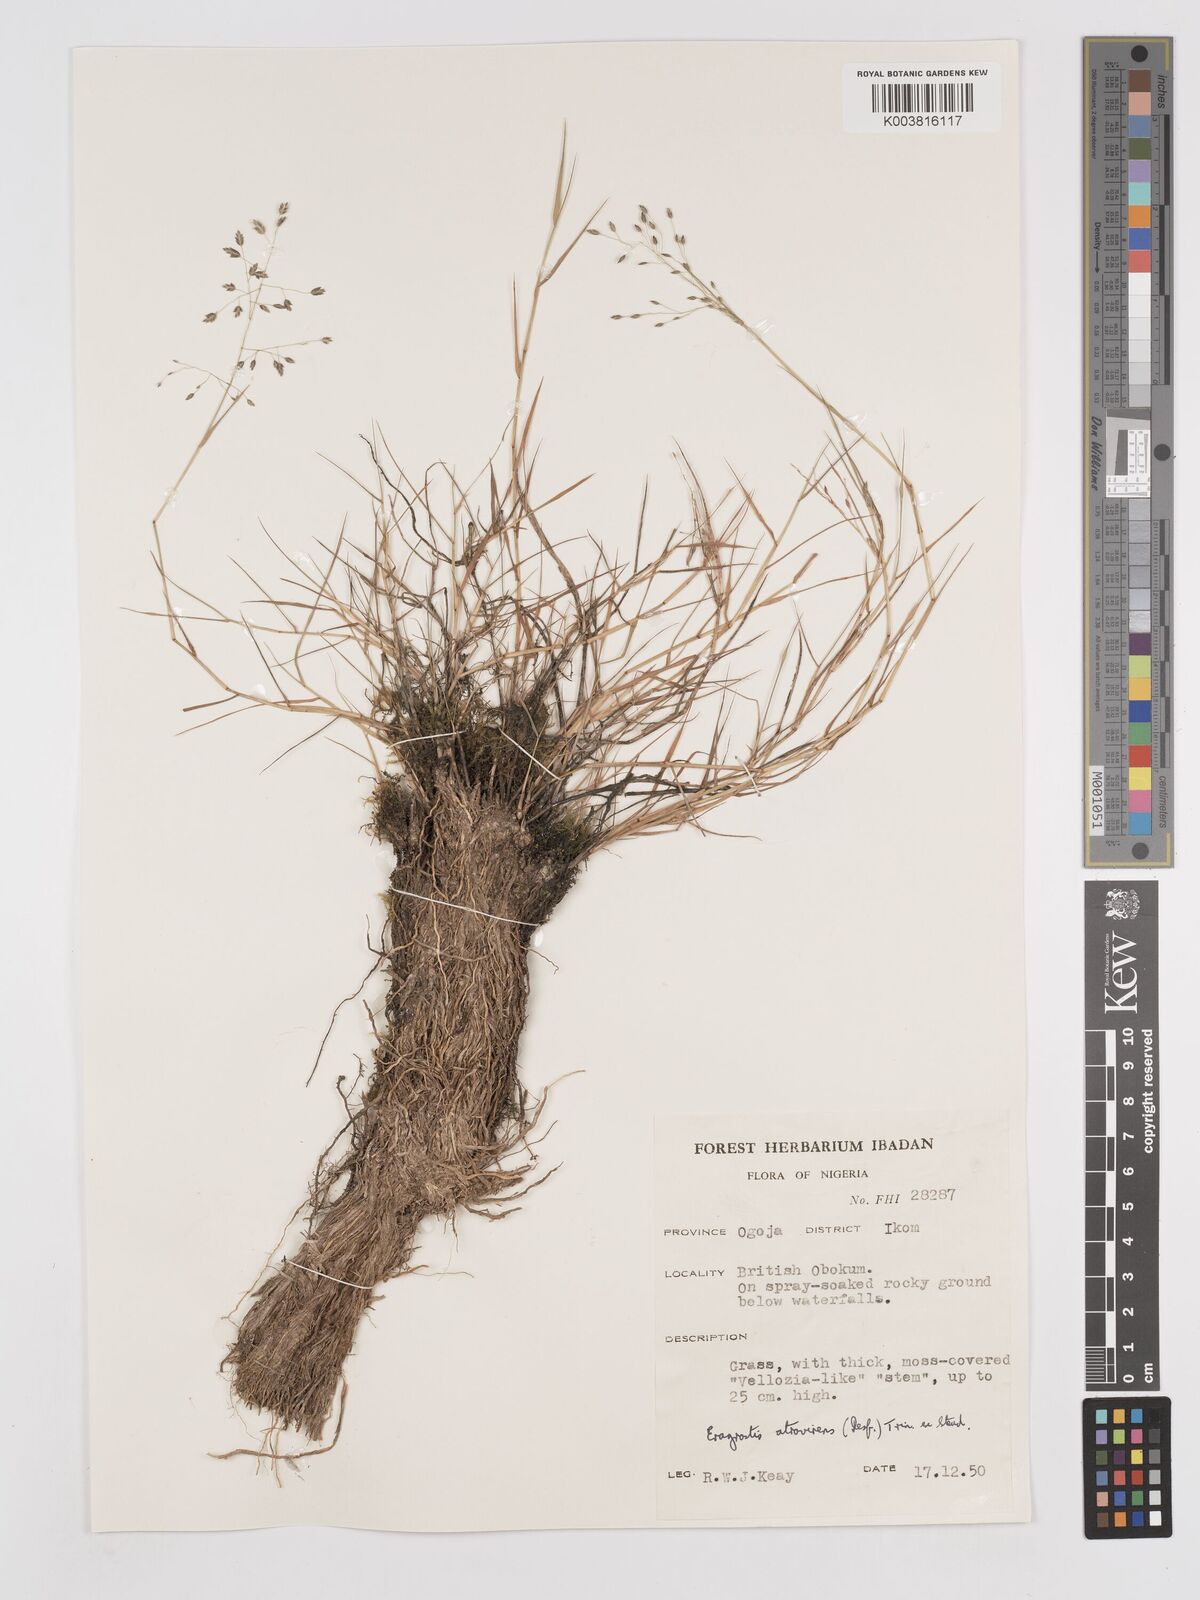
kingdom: Plantae
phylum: Tracheophyta
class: Liliopsida
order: Poales
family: Poaceae
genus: Eragrostis
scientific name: Eragrostis atrovirens
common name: Thalia lovegrass
